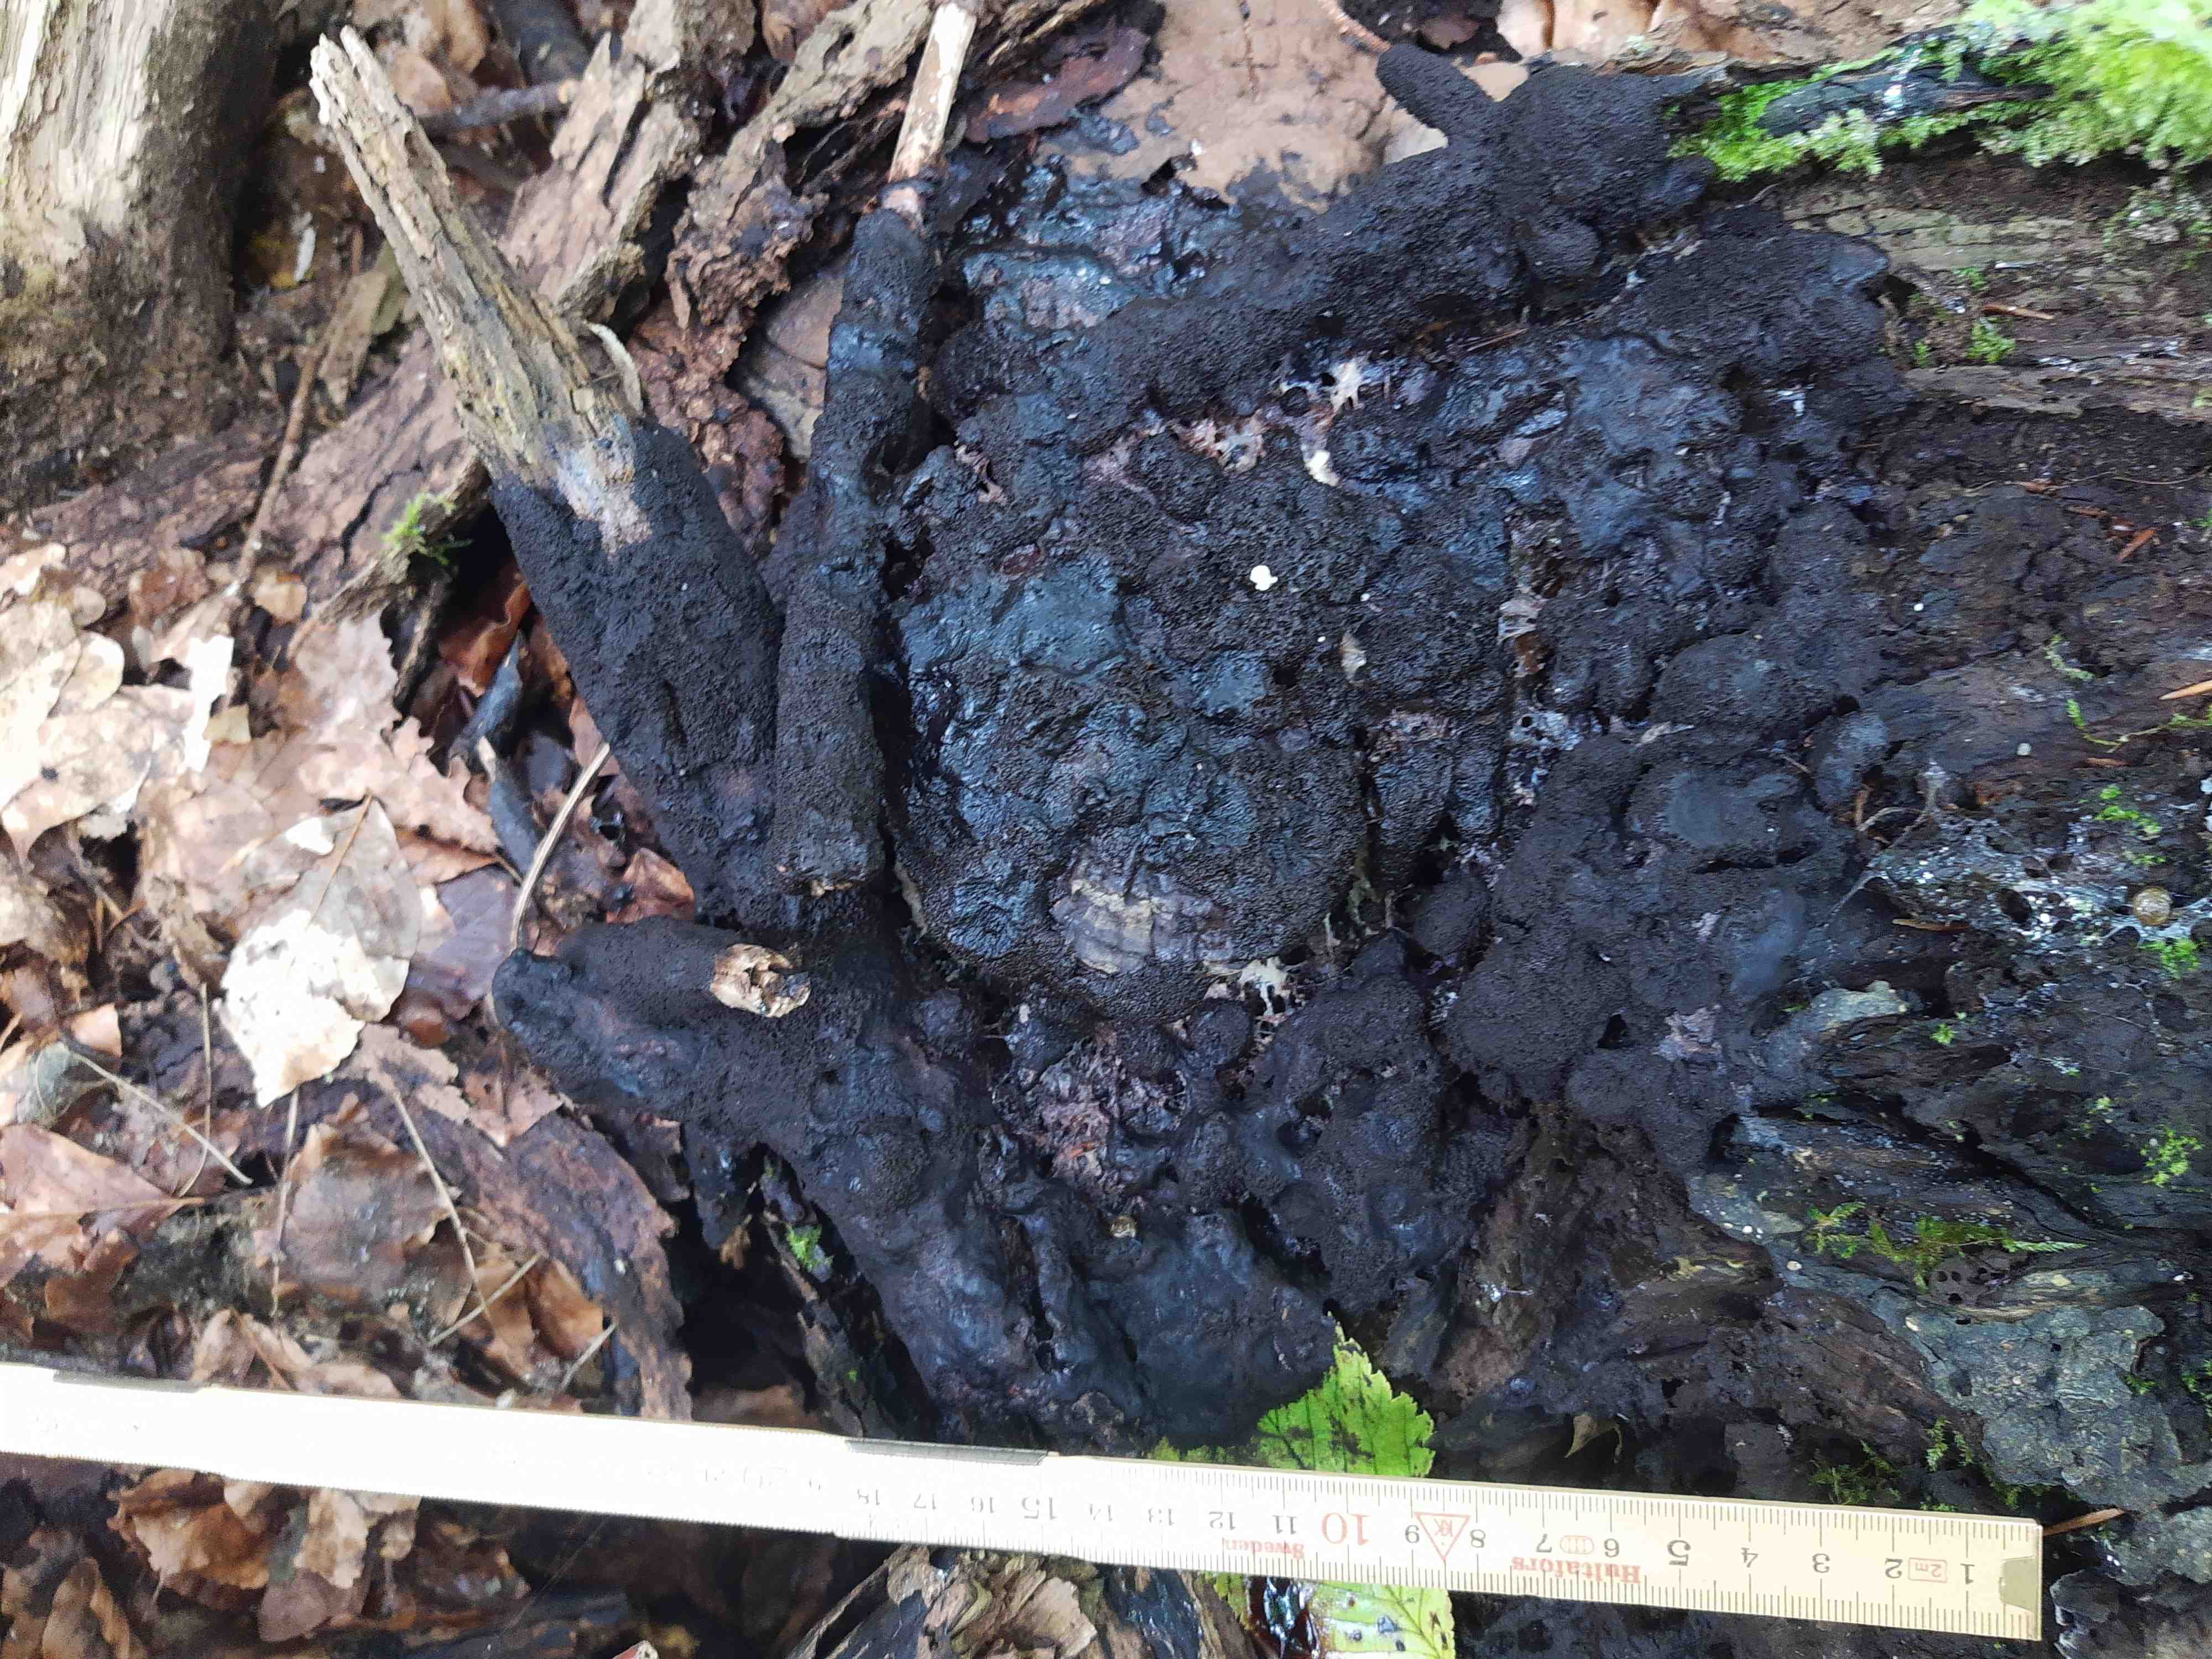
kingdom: Protozoa
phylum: Mycetozoa
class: Myxomycetes
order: Stemonitidales
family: Stemonitidaceae
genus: Symphytocarpus
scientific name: Symphytocarpus amaurochaetoides
